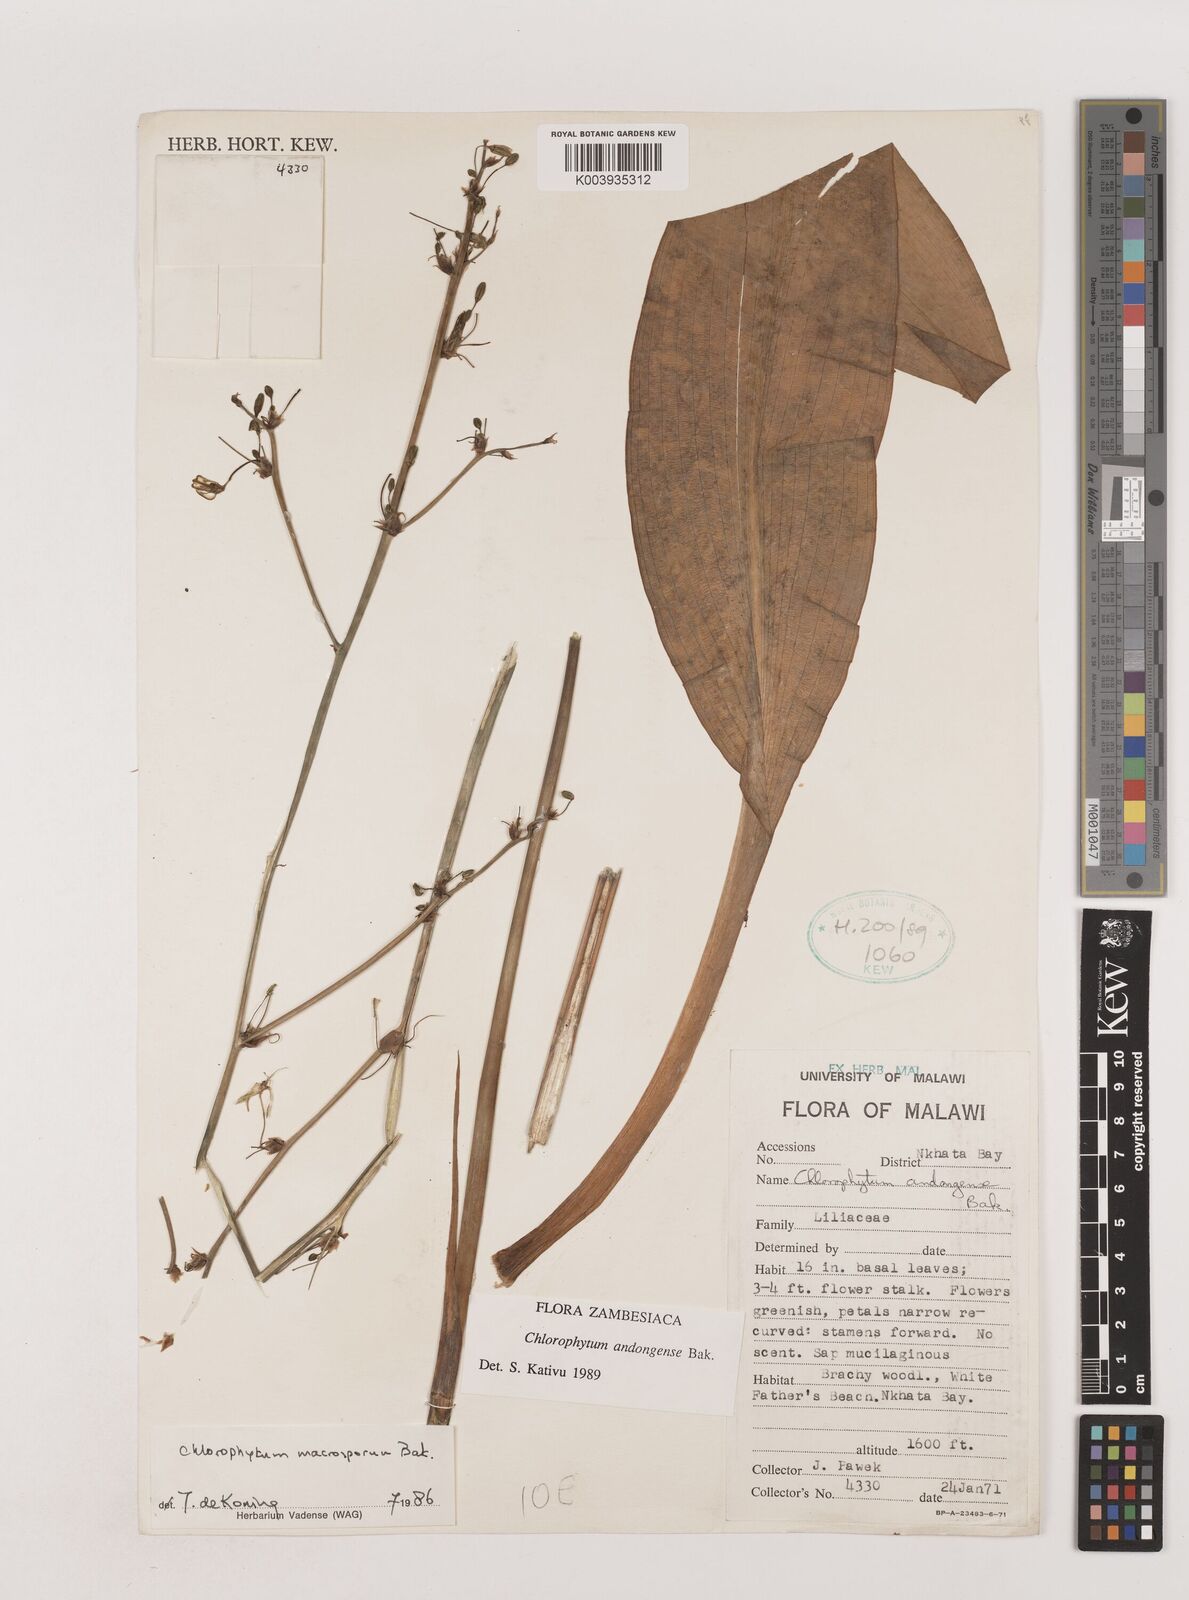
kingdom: Plantae
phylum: Tracheophyta
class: Liliopsida
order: Asparagales
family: Asparagaceae
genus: Chlorophytum
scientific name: Chlorophytum andongense
